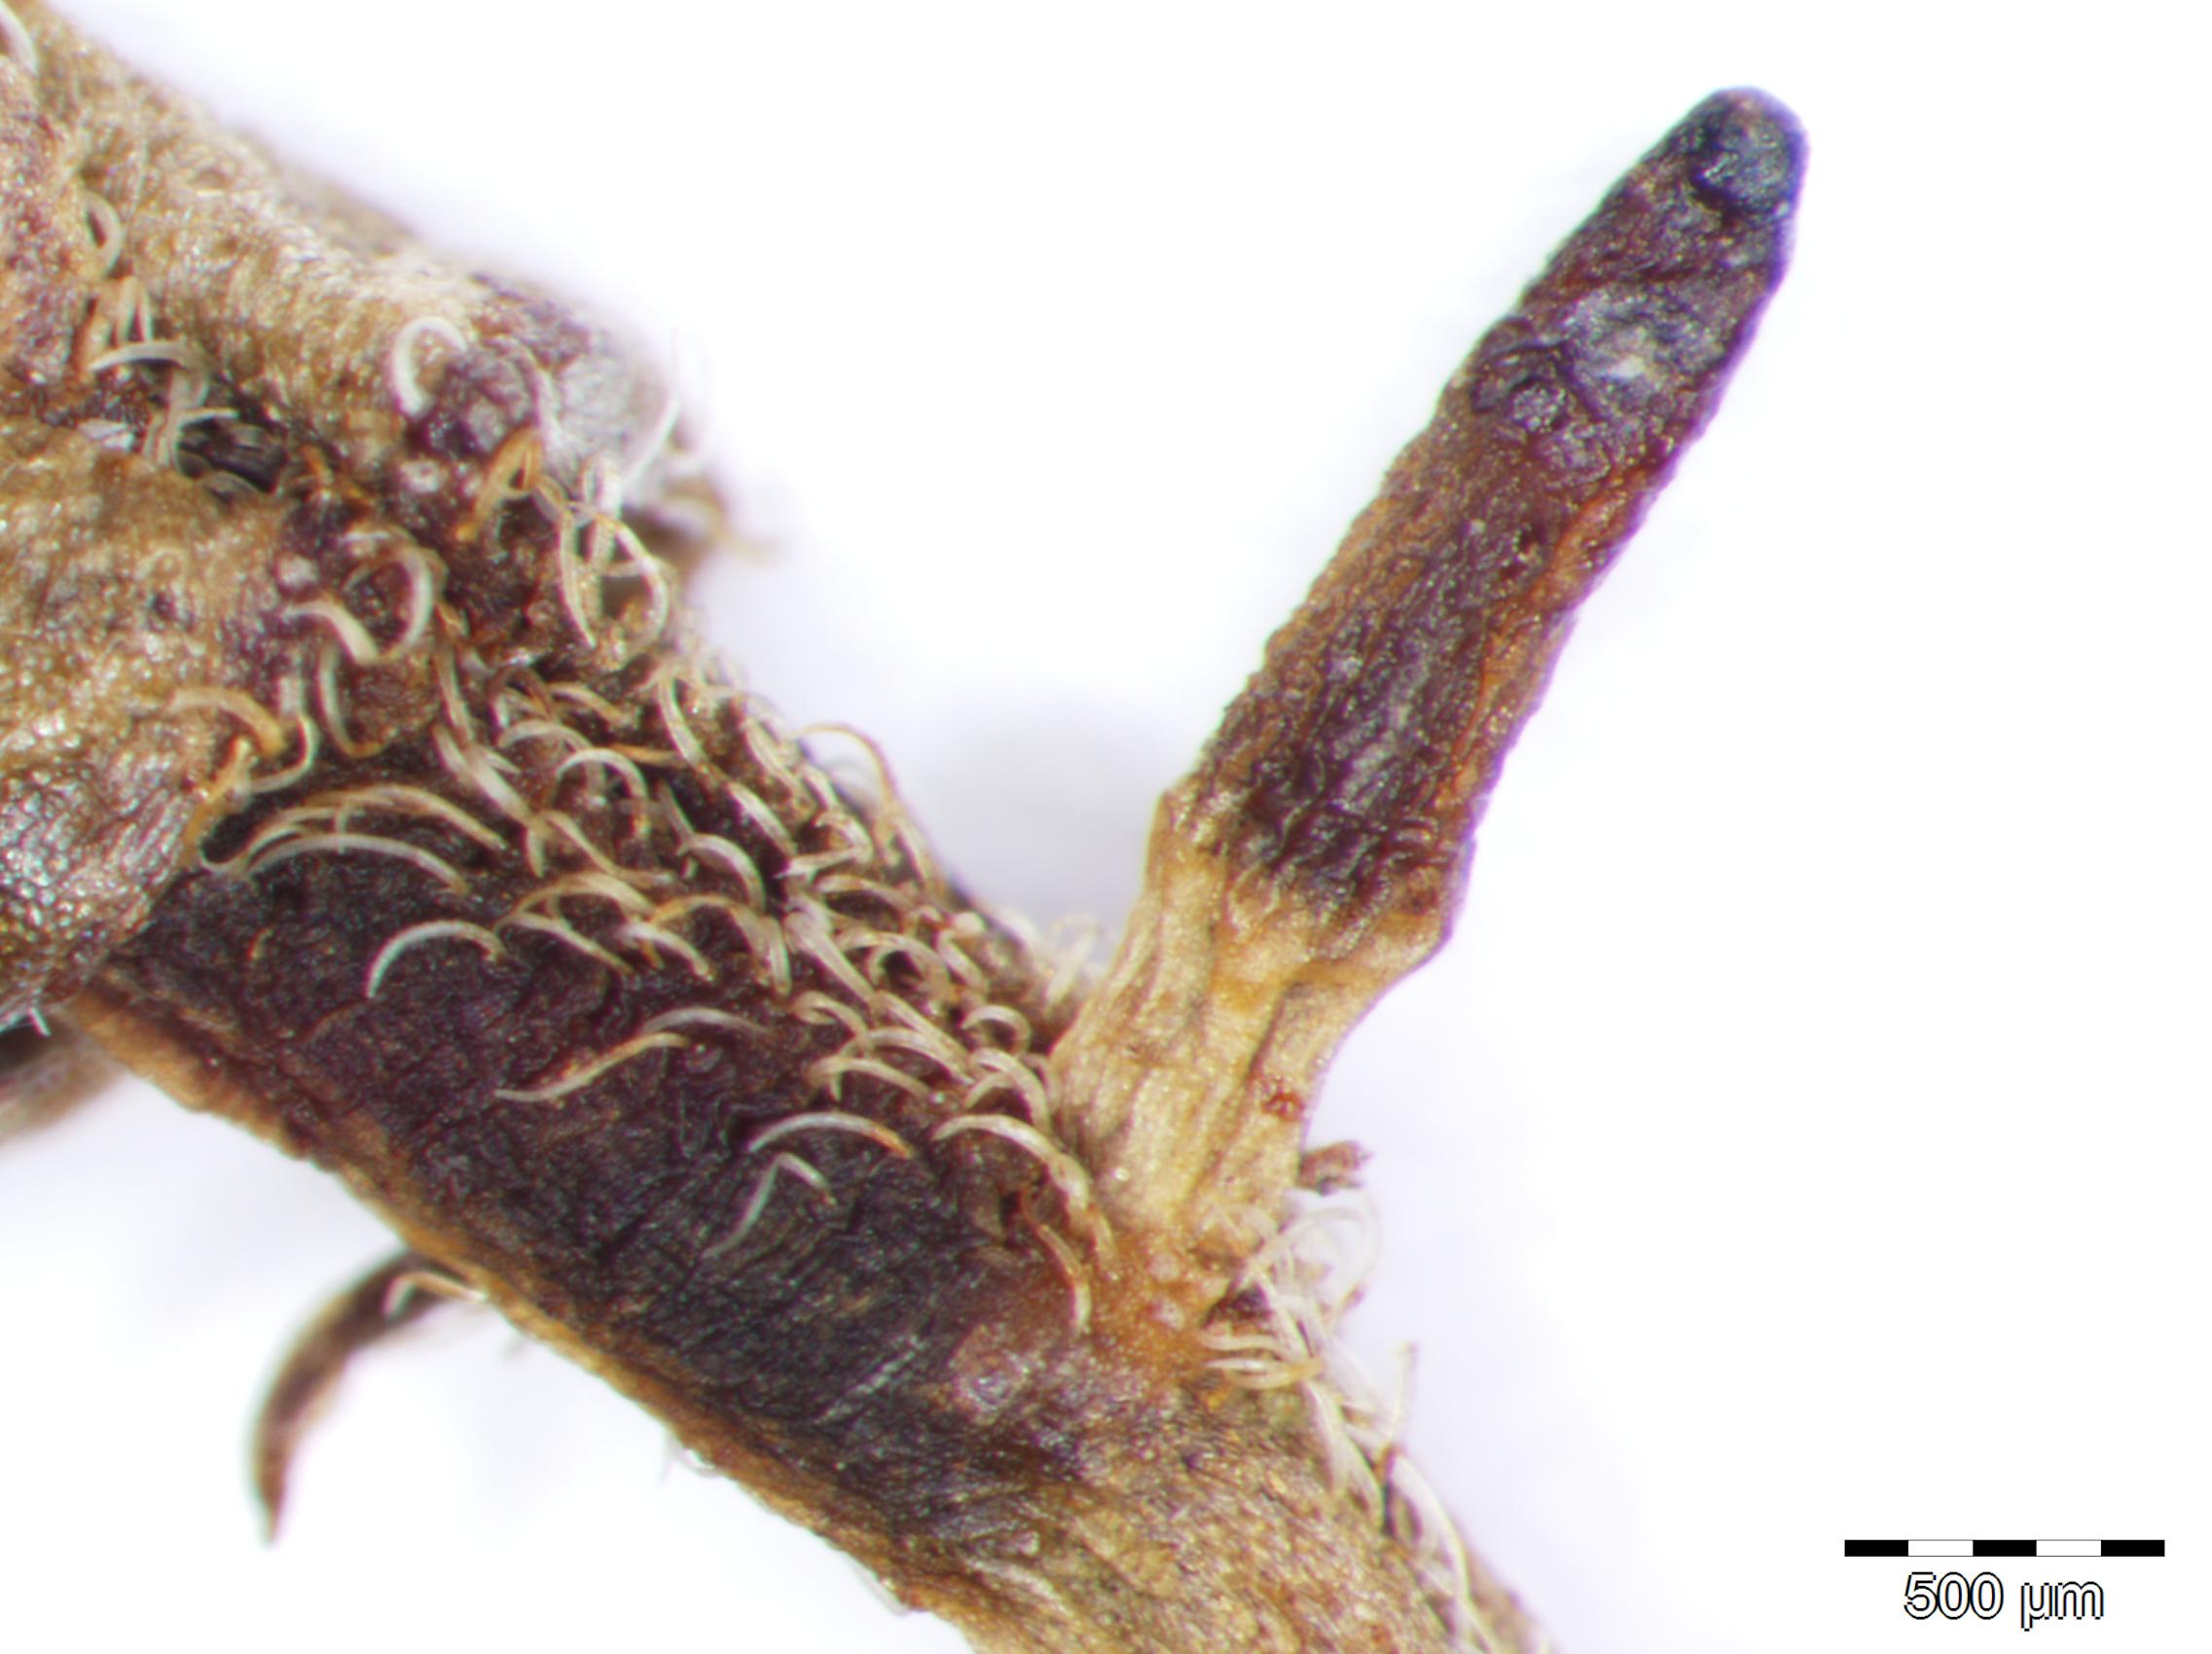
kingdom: Plantae
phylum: Tracheophyta
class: Magnoliopsida
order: Fabales
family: Fabaceae
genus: Senna
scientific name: Senna ligustrina
